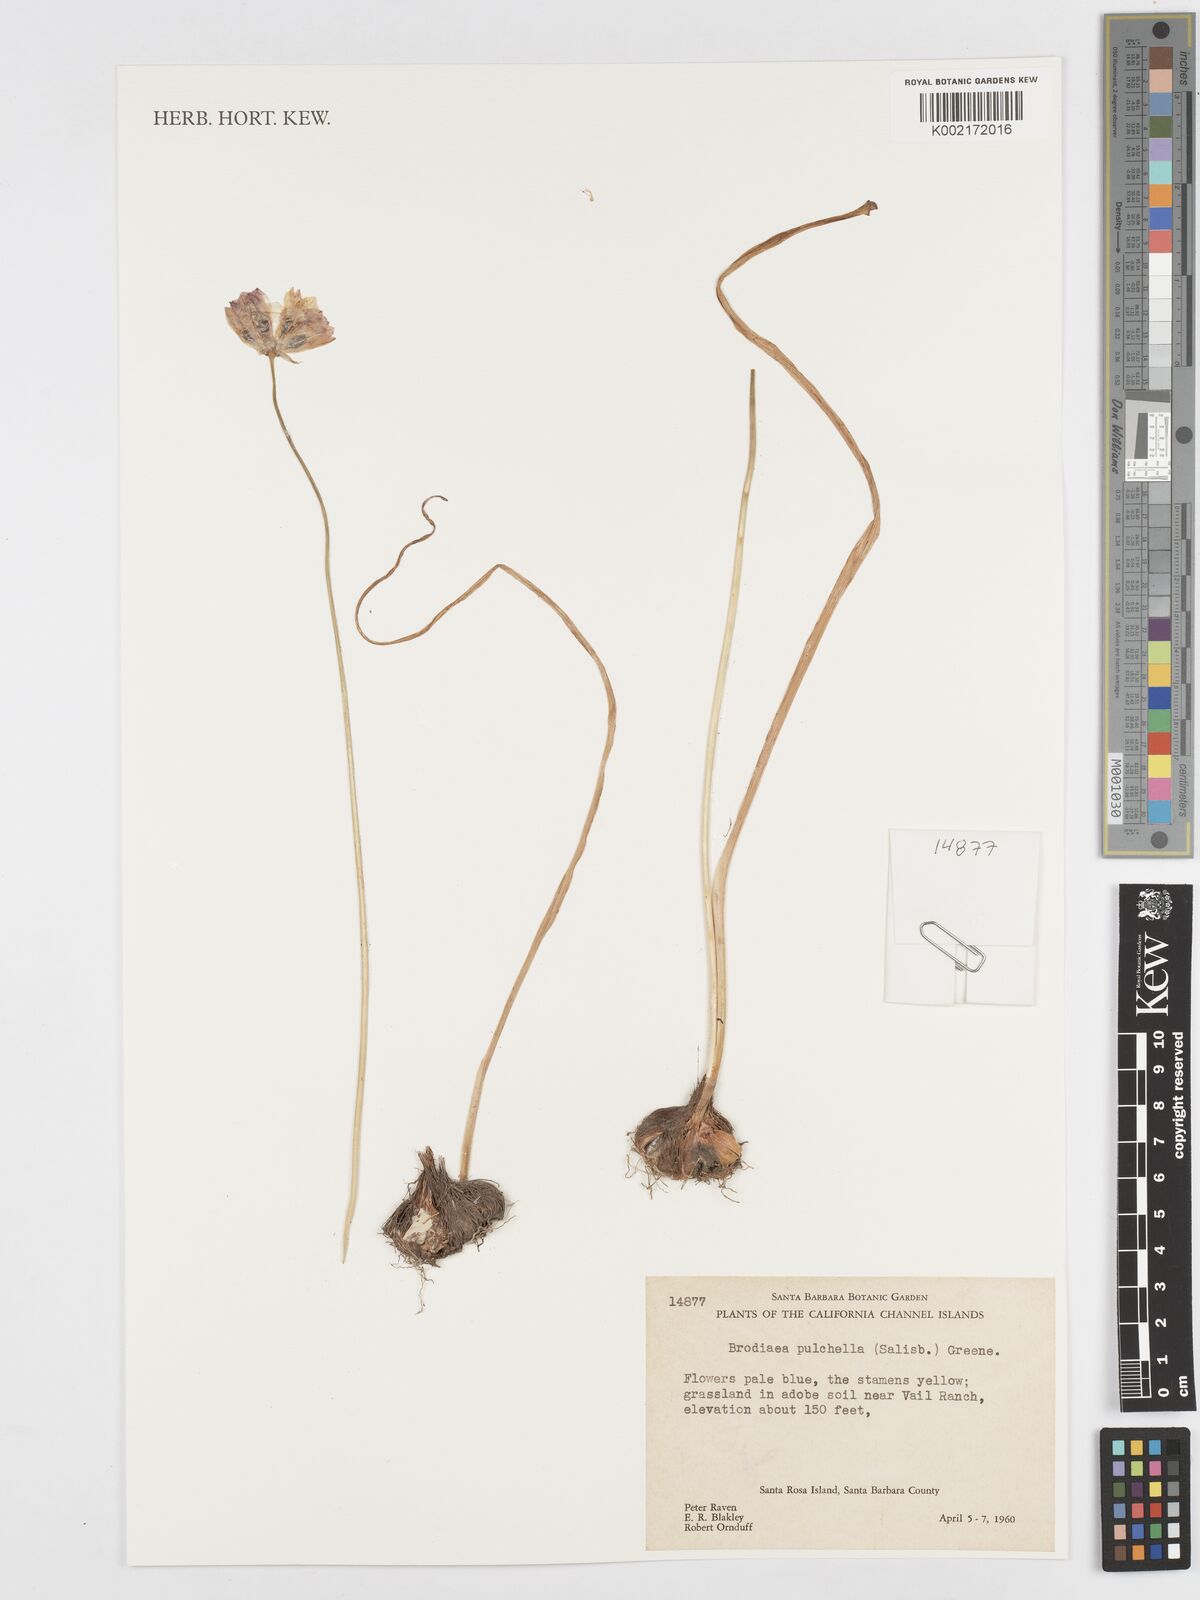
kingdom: Plantae
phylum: Tracheophyta
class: Liliopsida
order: Asparagales
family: Asparagaceae
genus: Dichelostemma
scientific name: Dichelostemma congestum
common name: Fork-tooth ookow
